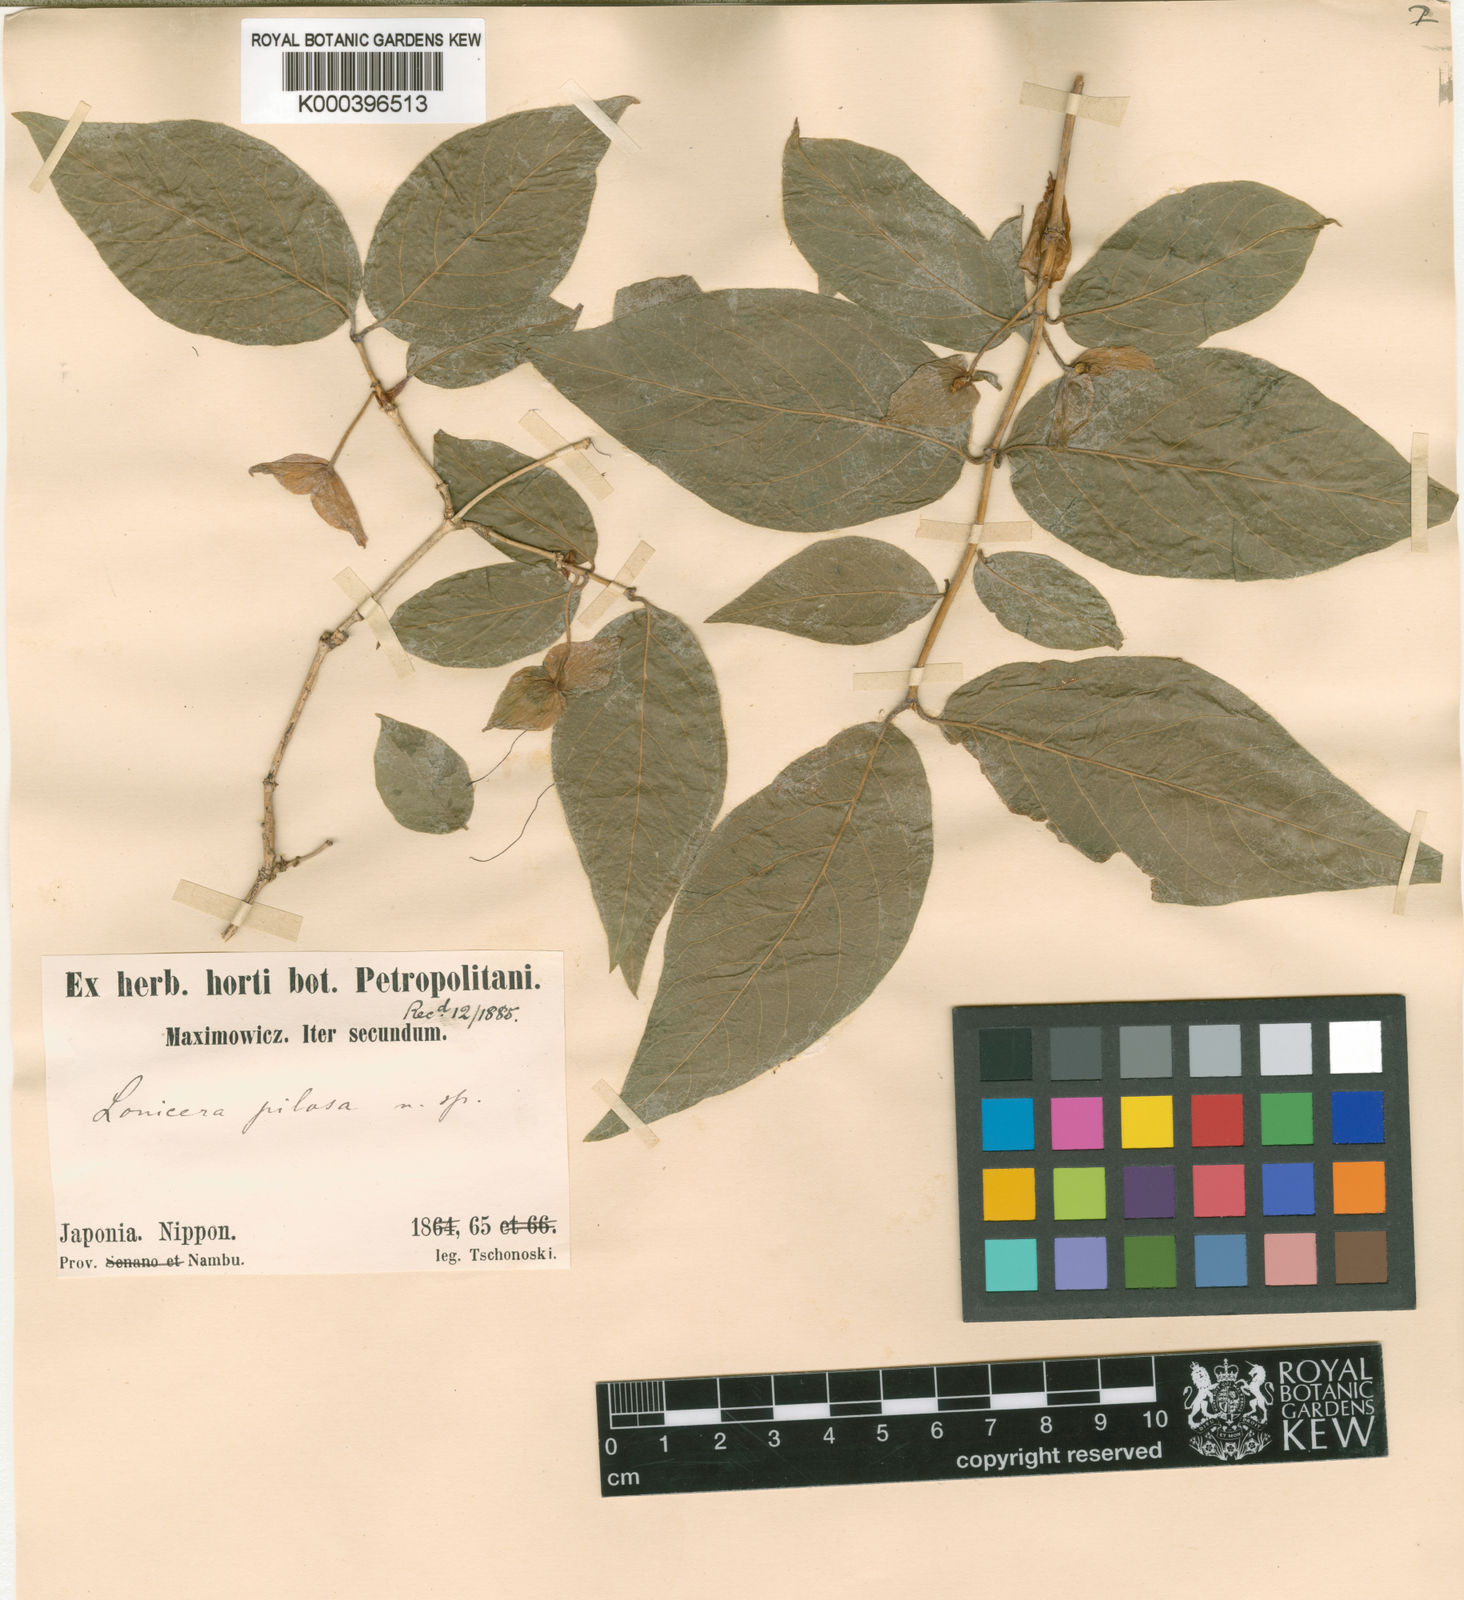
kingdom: Plantae
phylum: Tracheophyta
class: Magnoliopsida
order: Dipsacales
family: Caprifoliaceae
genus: Lonicera
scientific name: Lonicera strophiophora
